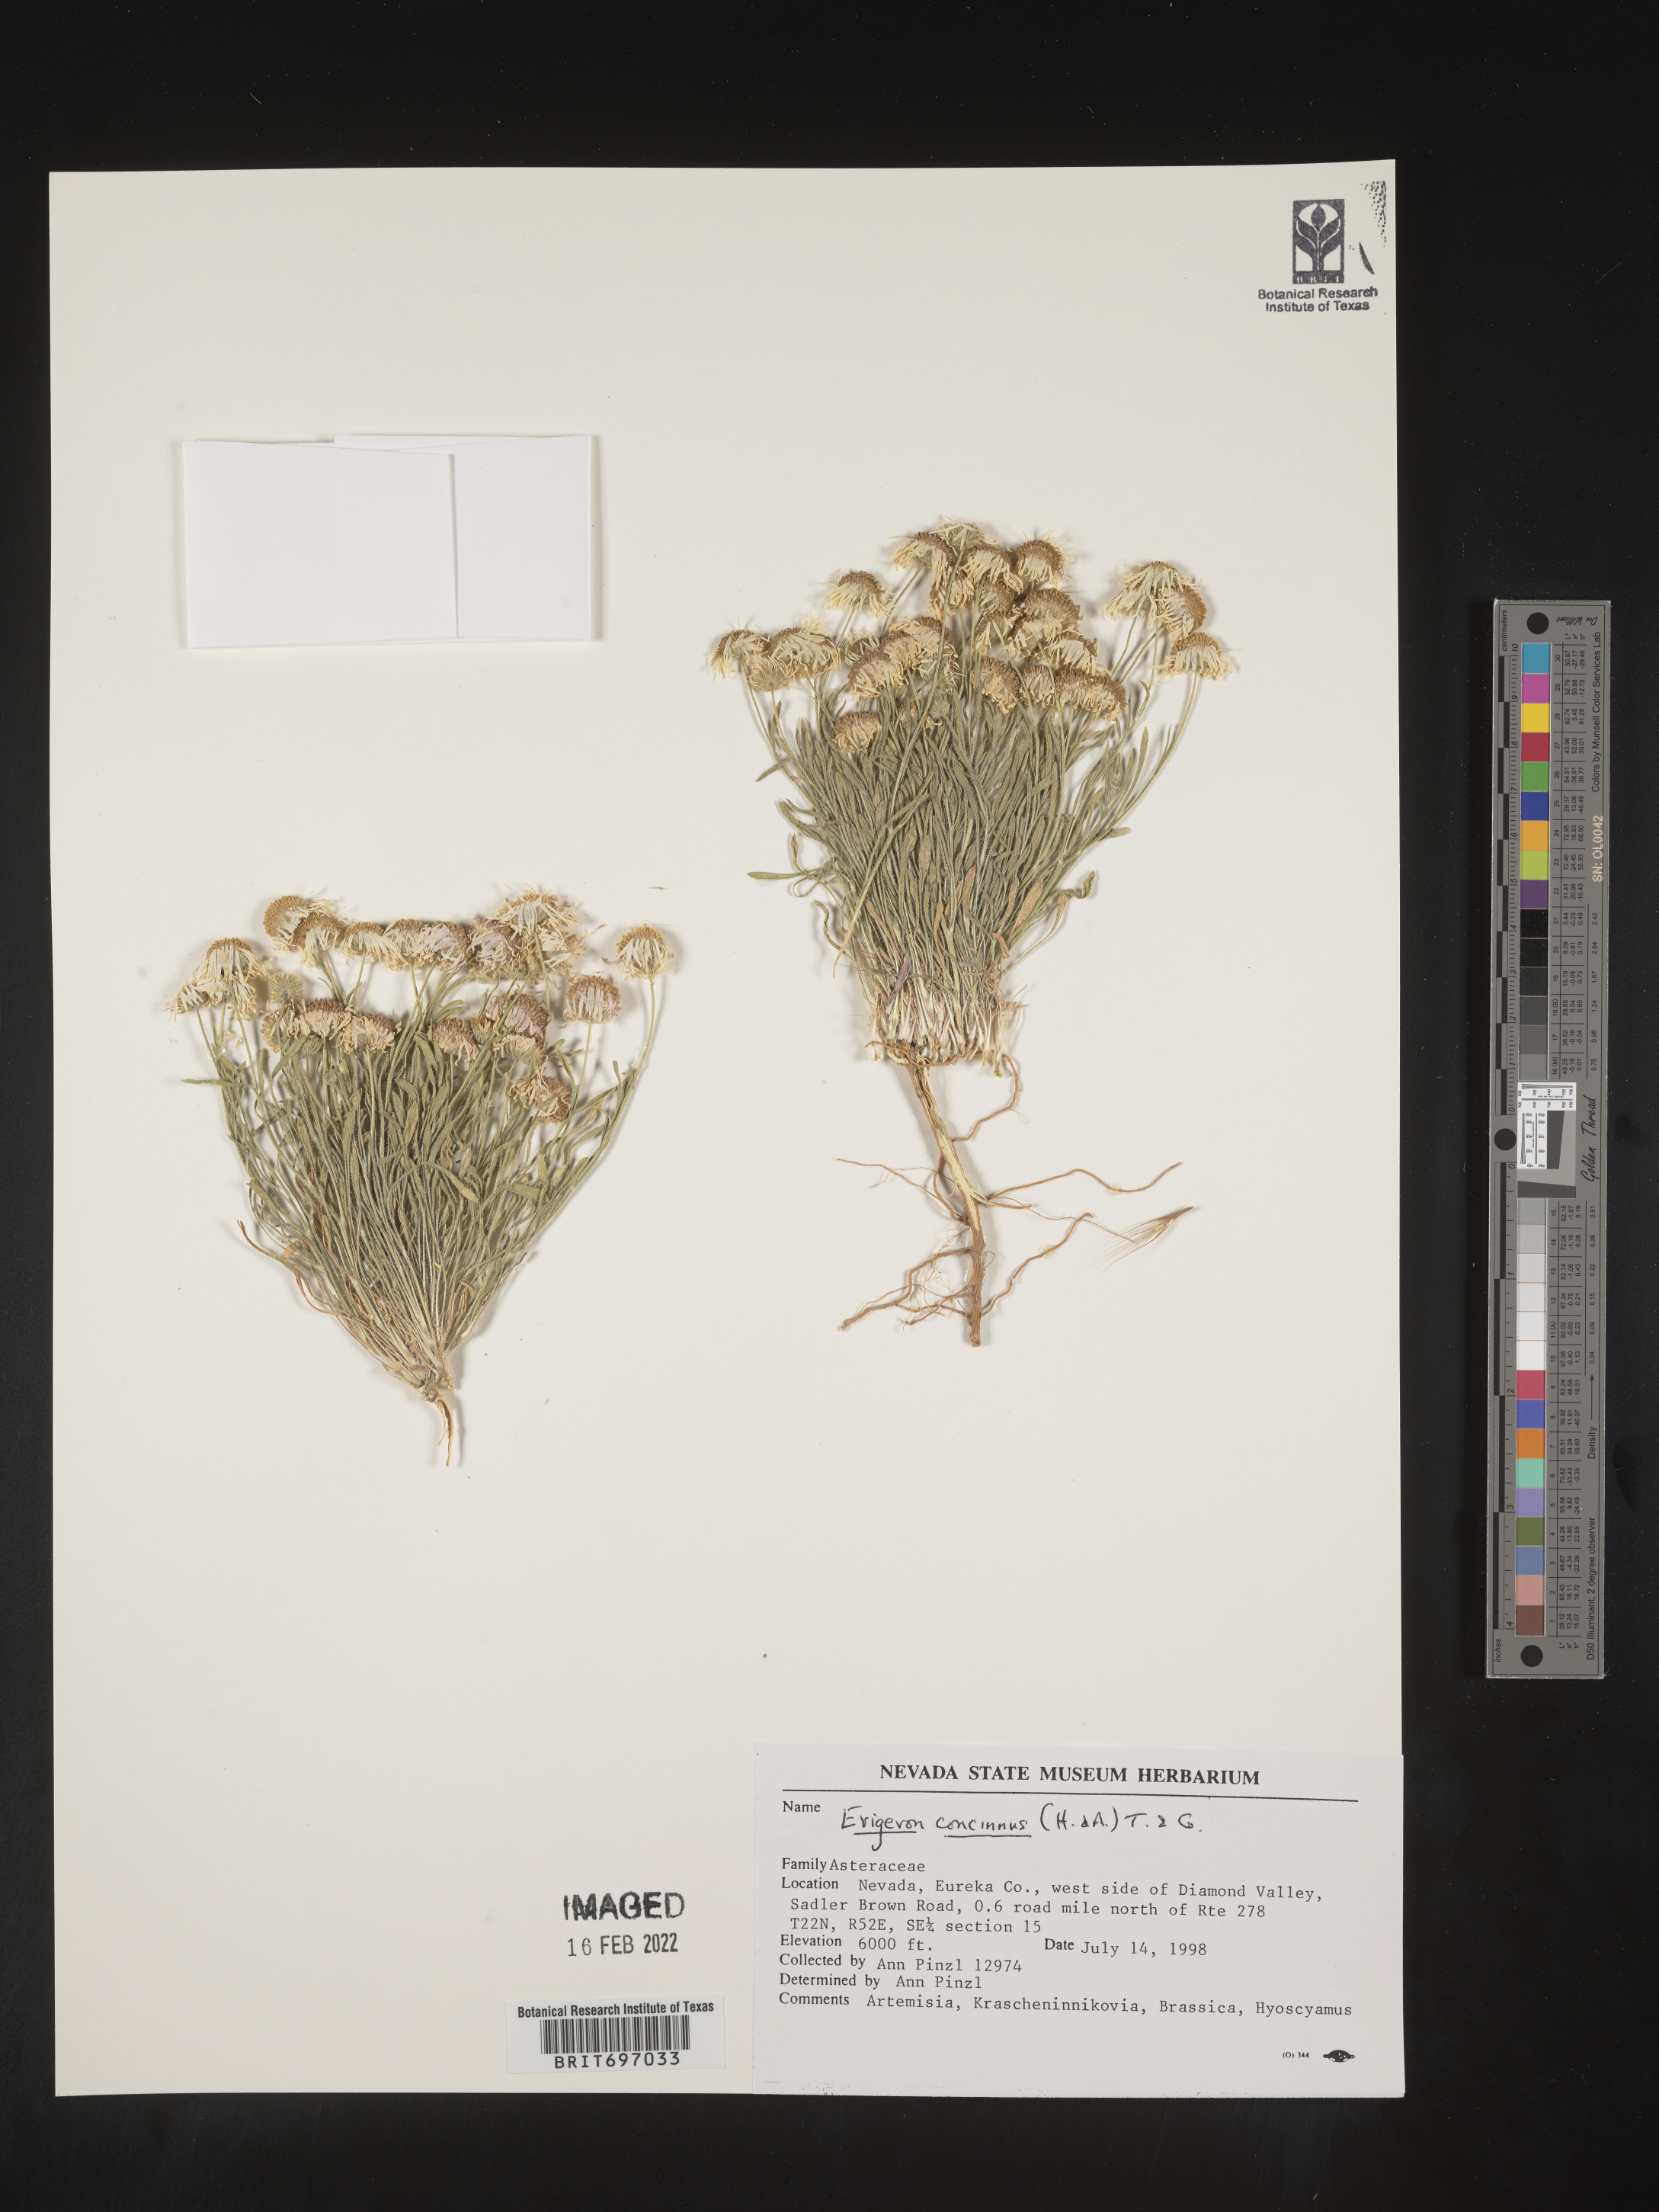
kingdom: Plantae
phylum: Tracheophyta
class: Magnoliopsida
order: Asterales
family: Asteraceae
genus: Erigeron
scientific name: Erigeron concinnus
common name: Navajo fleabane
